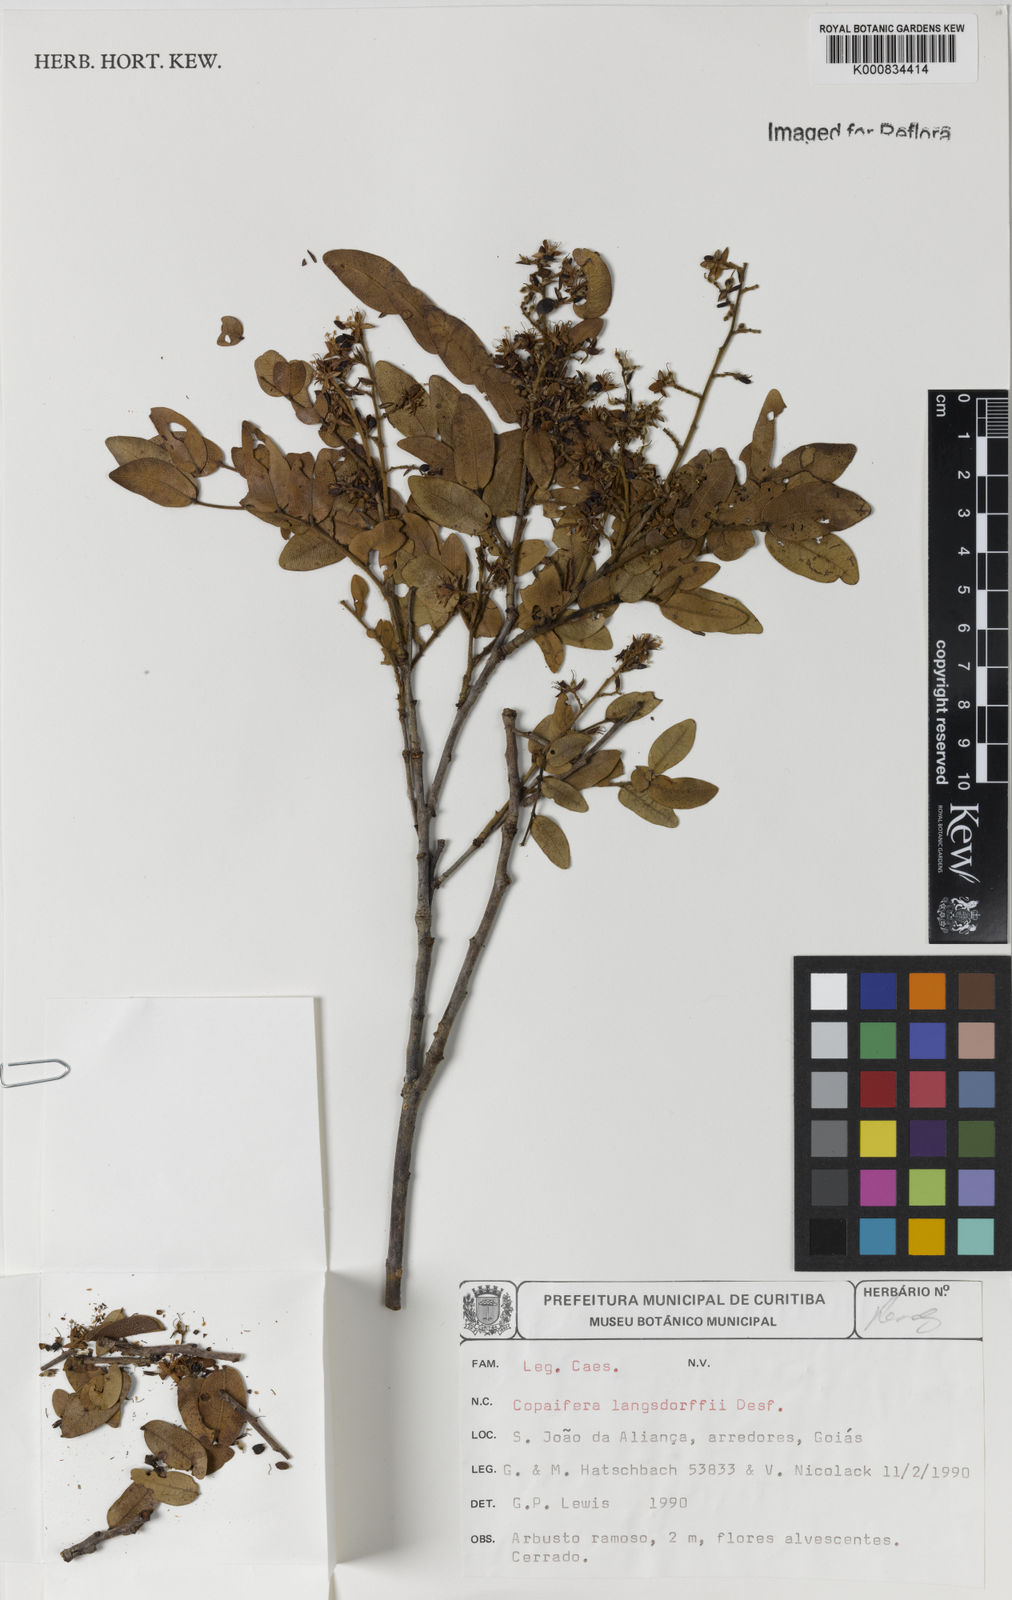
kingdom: Plantae
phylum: Tracheophyta
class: Magnoliopsida
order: Fabales
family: Fabaceae
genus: Copaifera
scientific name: Copaifera langsdorffii
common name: Brazilian diesel tree
